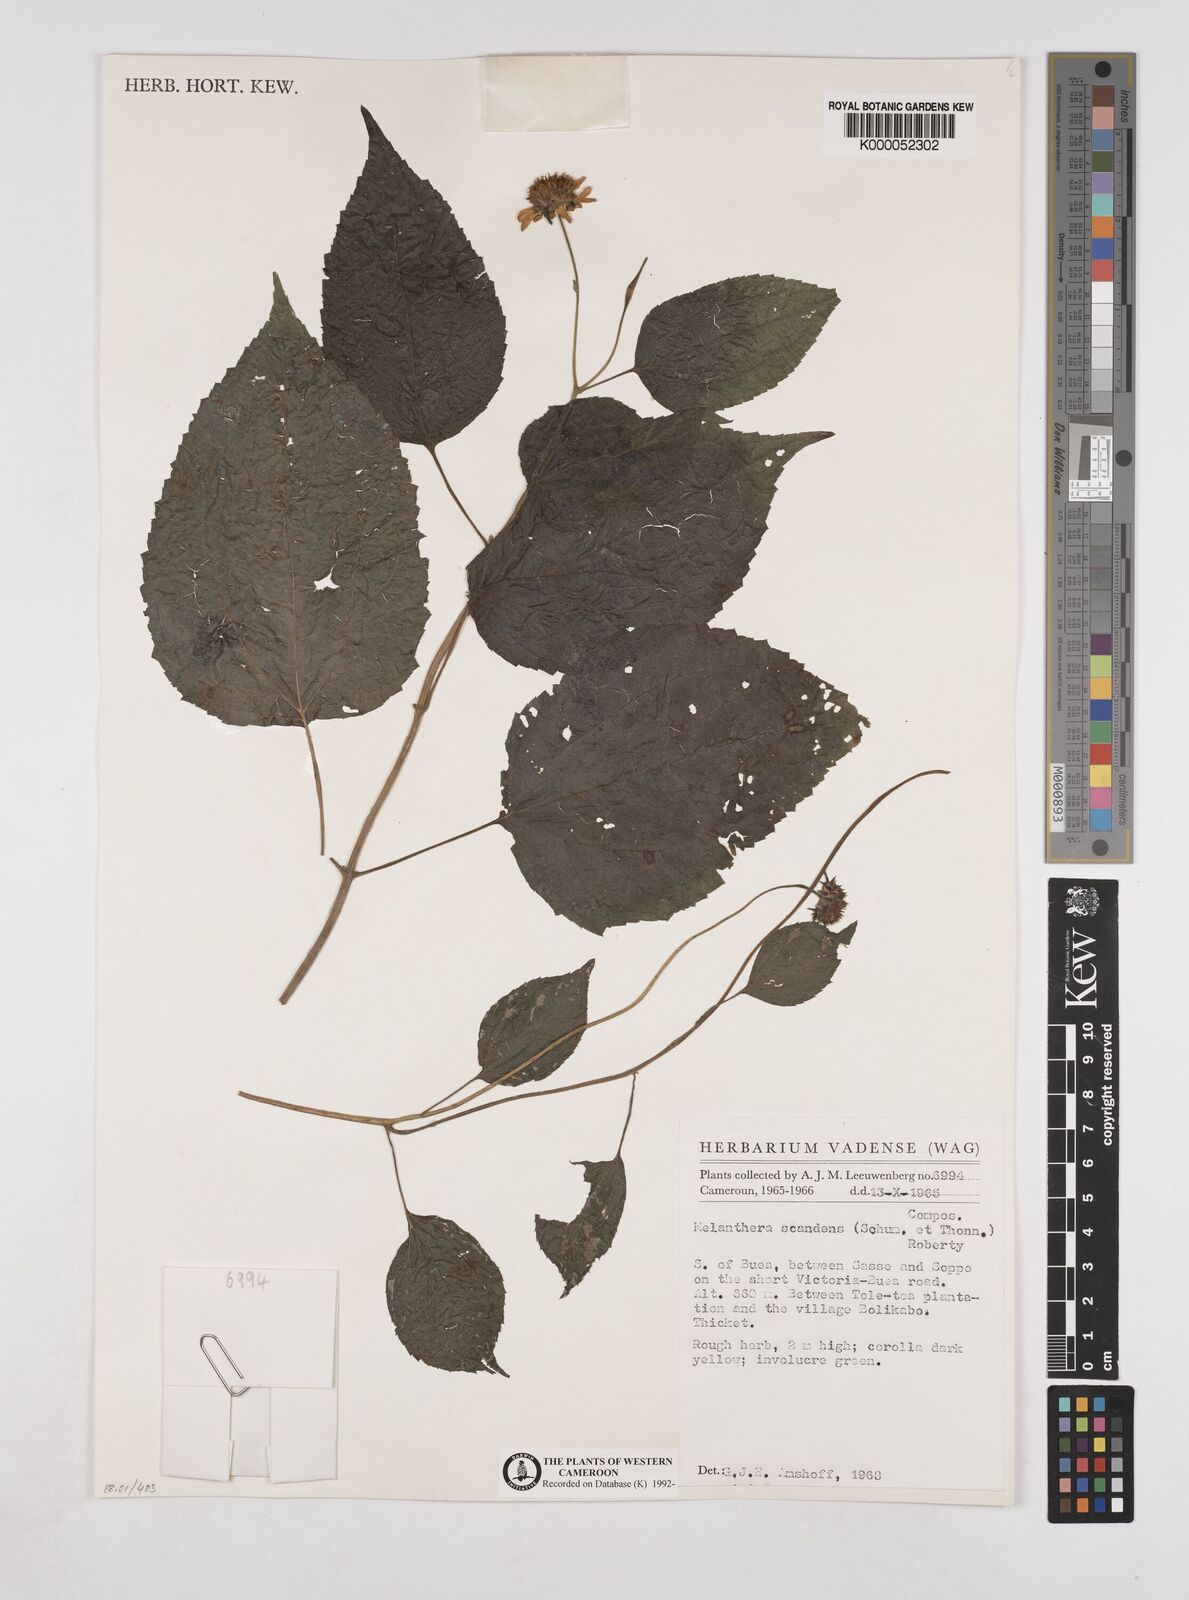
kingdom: Plantae
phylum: Tracheophyta
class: Magnoliopsida
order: Asterales
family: Asteraceae
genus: Melanthera
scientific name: Melanthera
